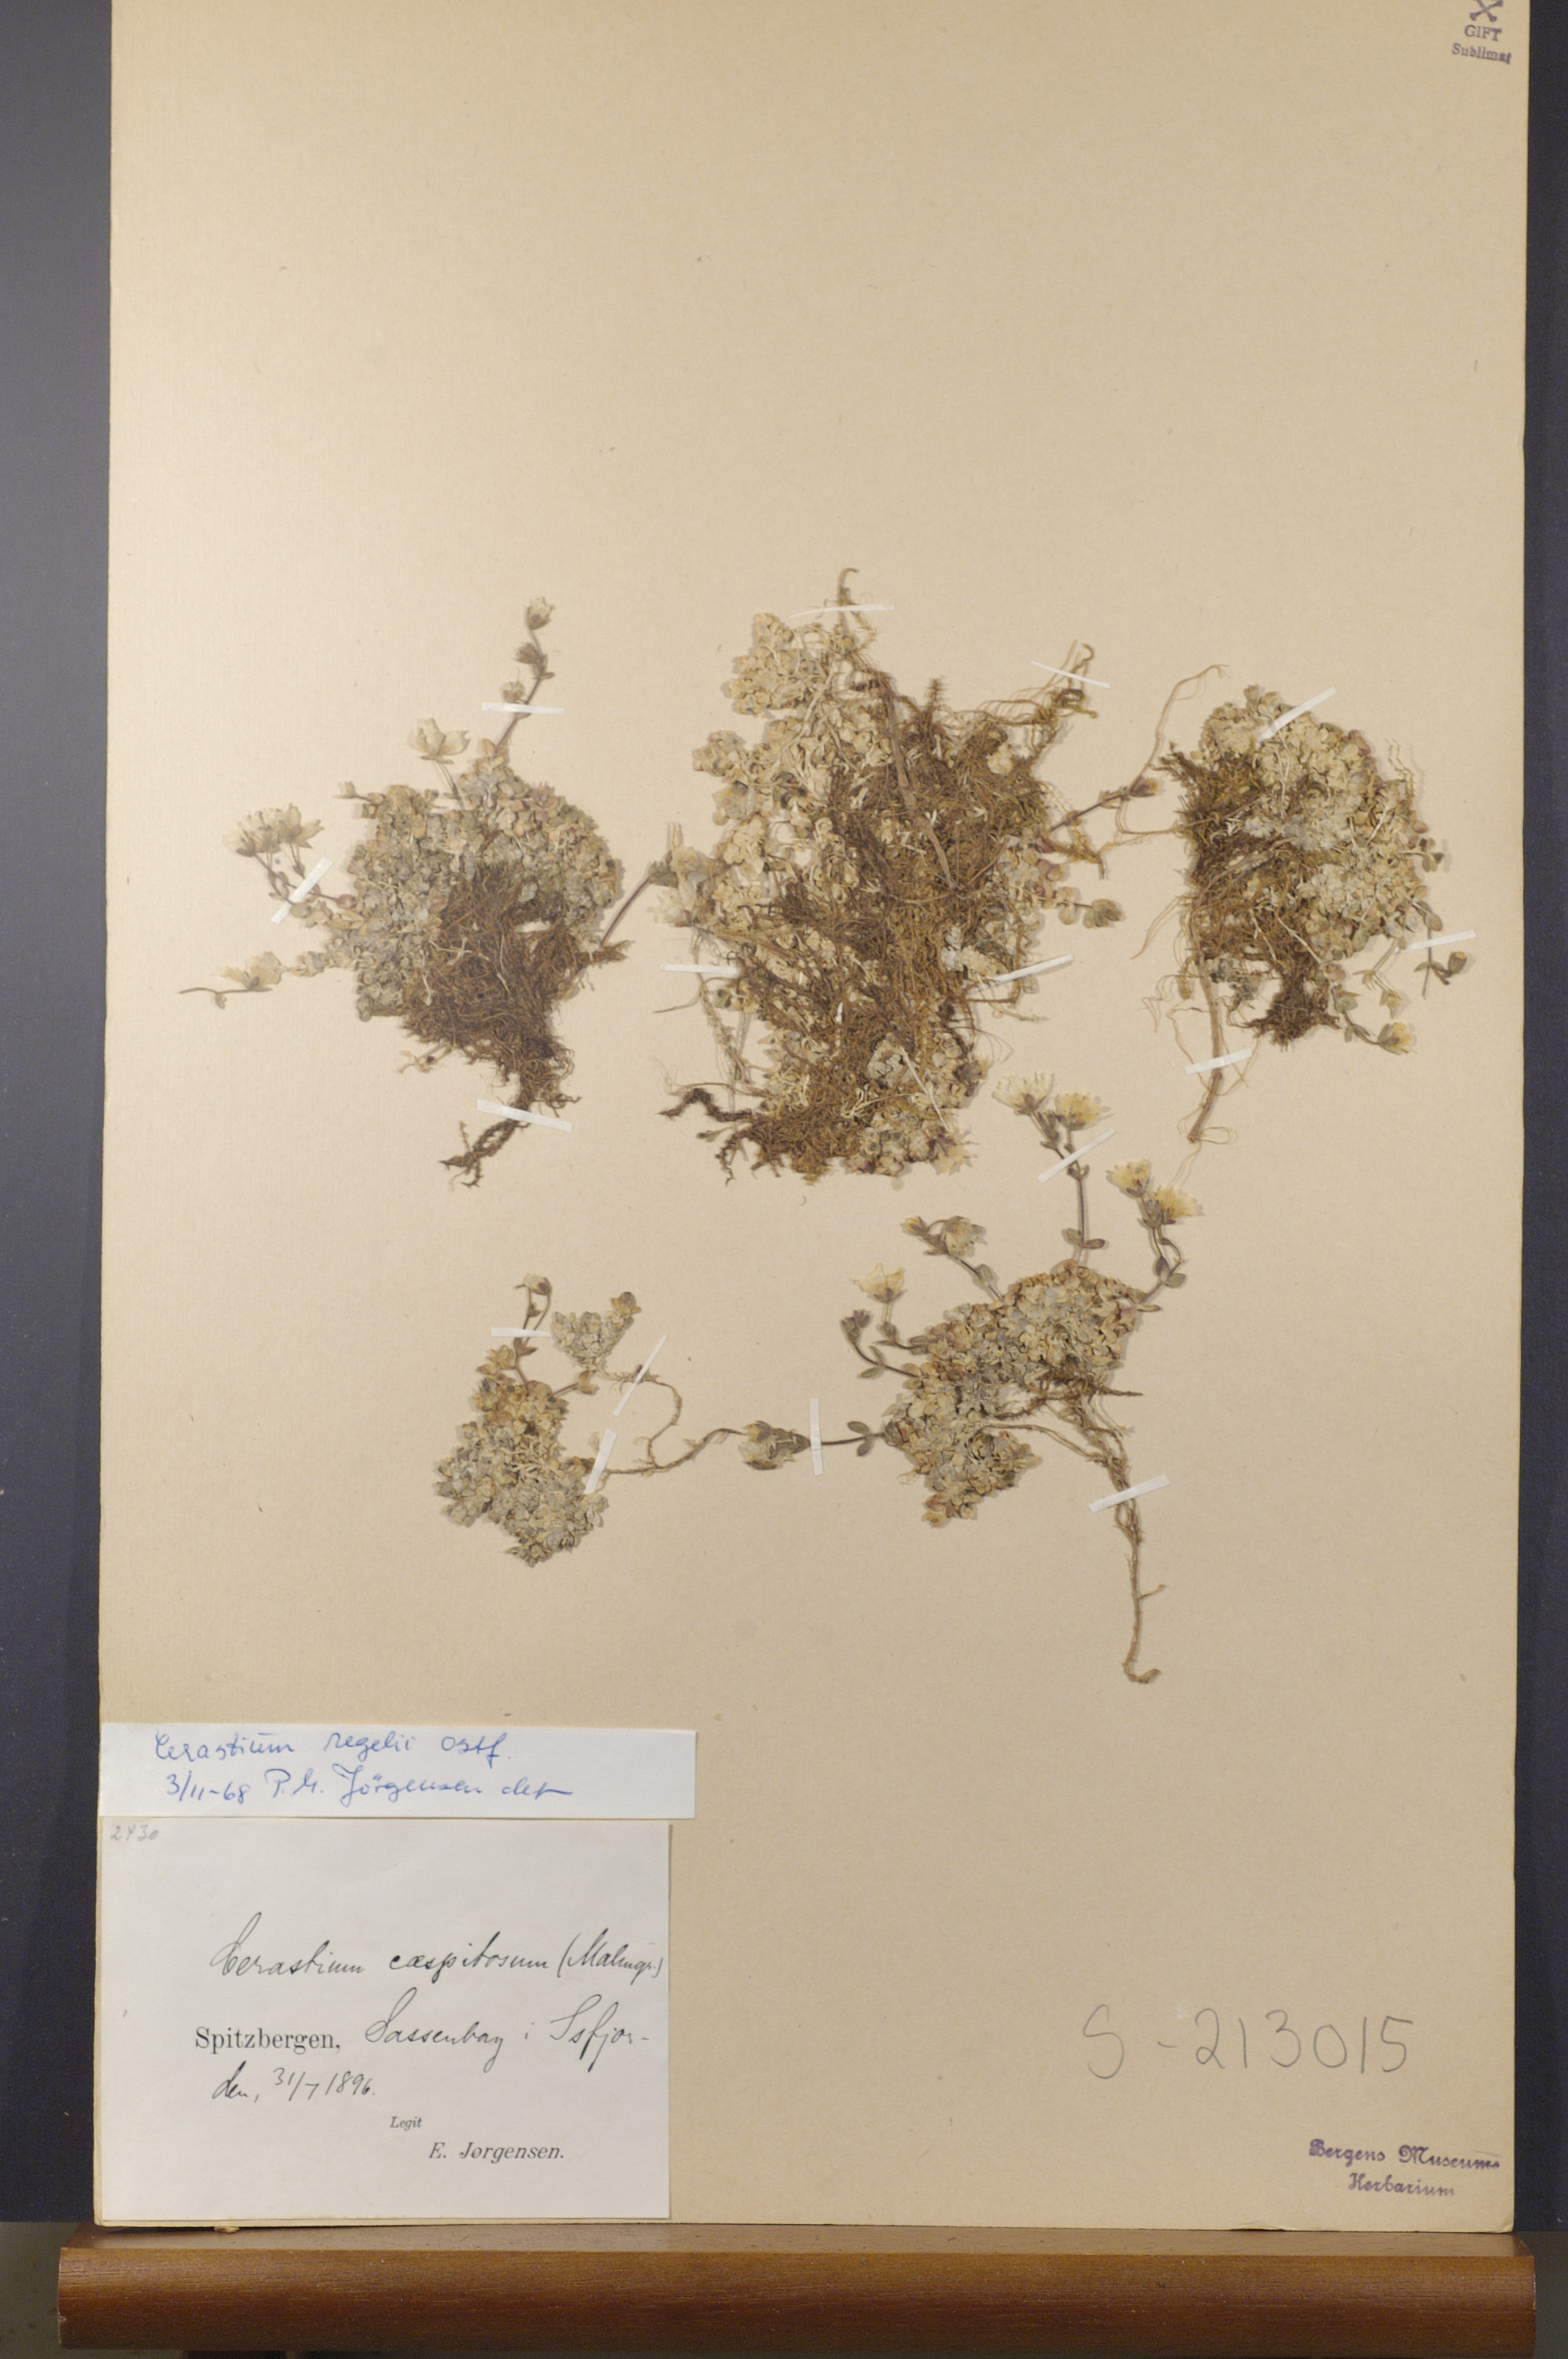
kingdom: Plantae
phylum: Tracheophyta
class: Magnoliopsida
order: Caryophyllales
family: Caryophyllaceae
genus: Cerastium
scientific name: Cerastium regelii
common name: Regel's chickweed
